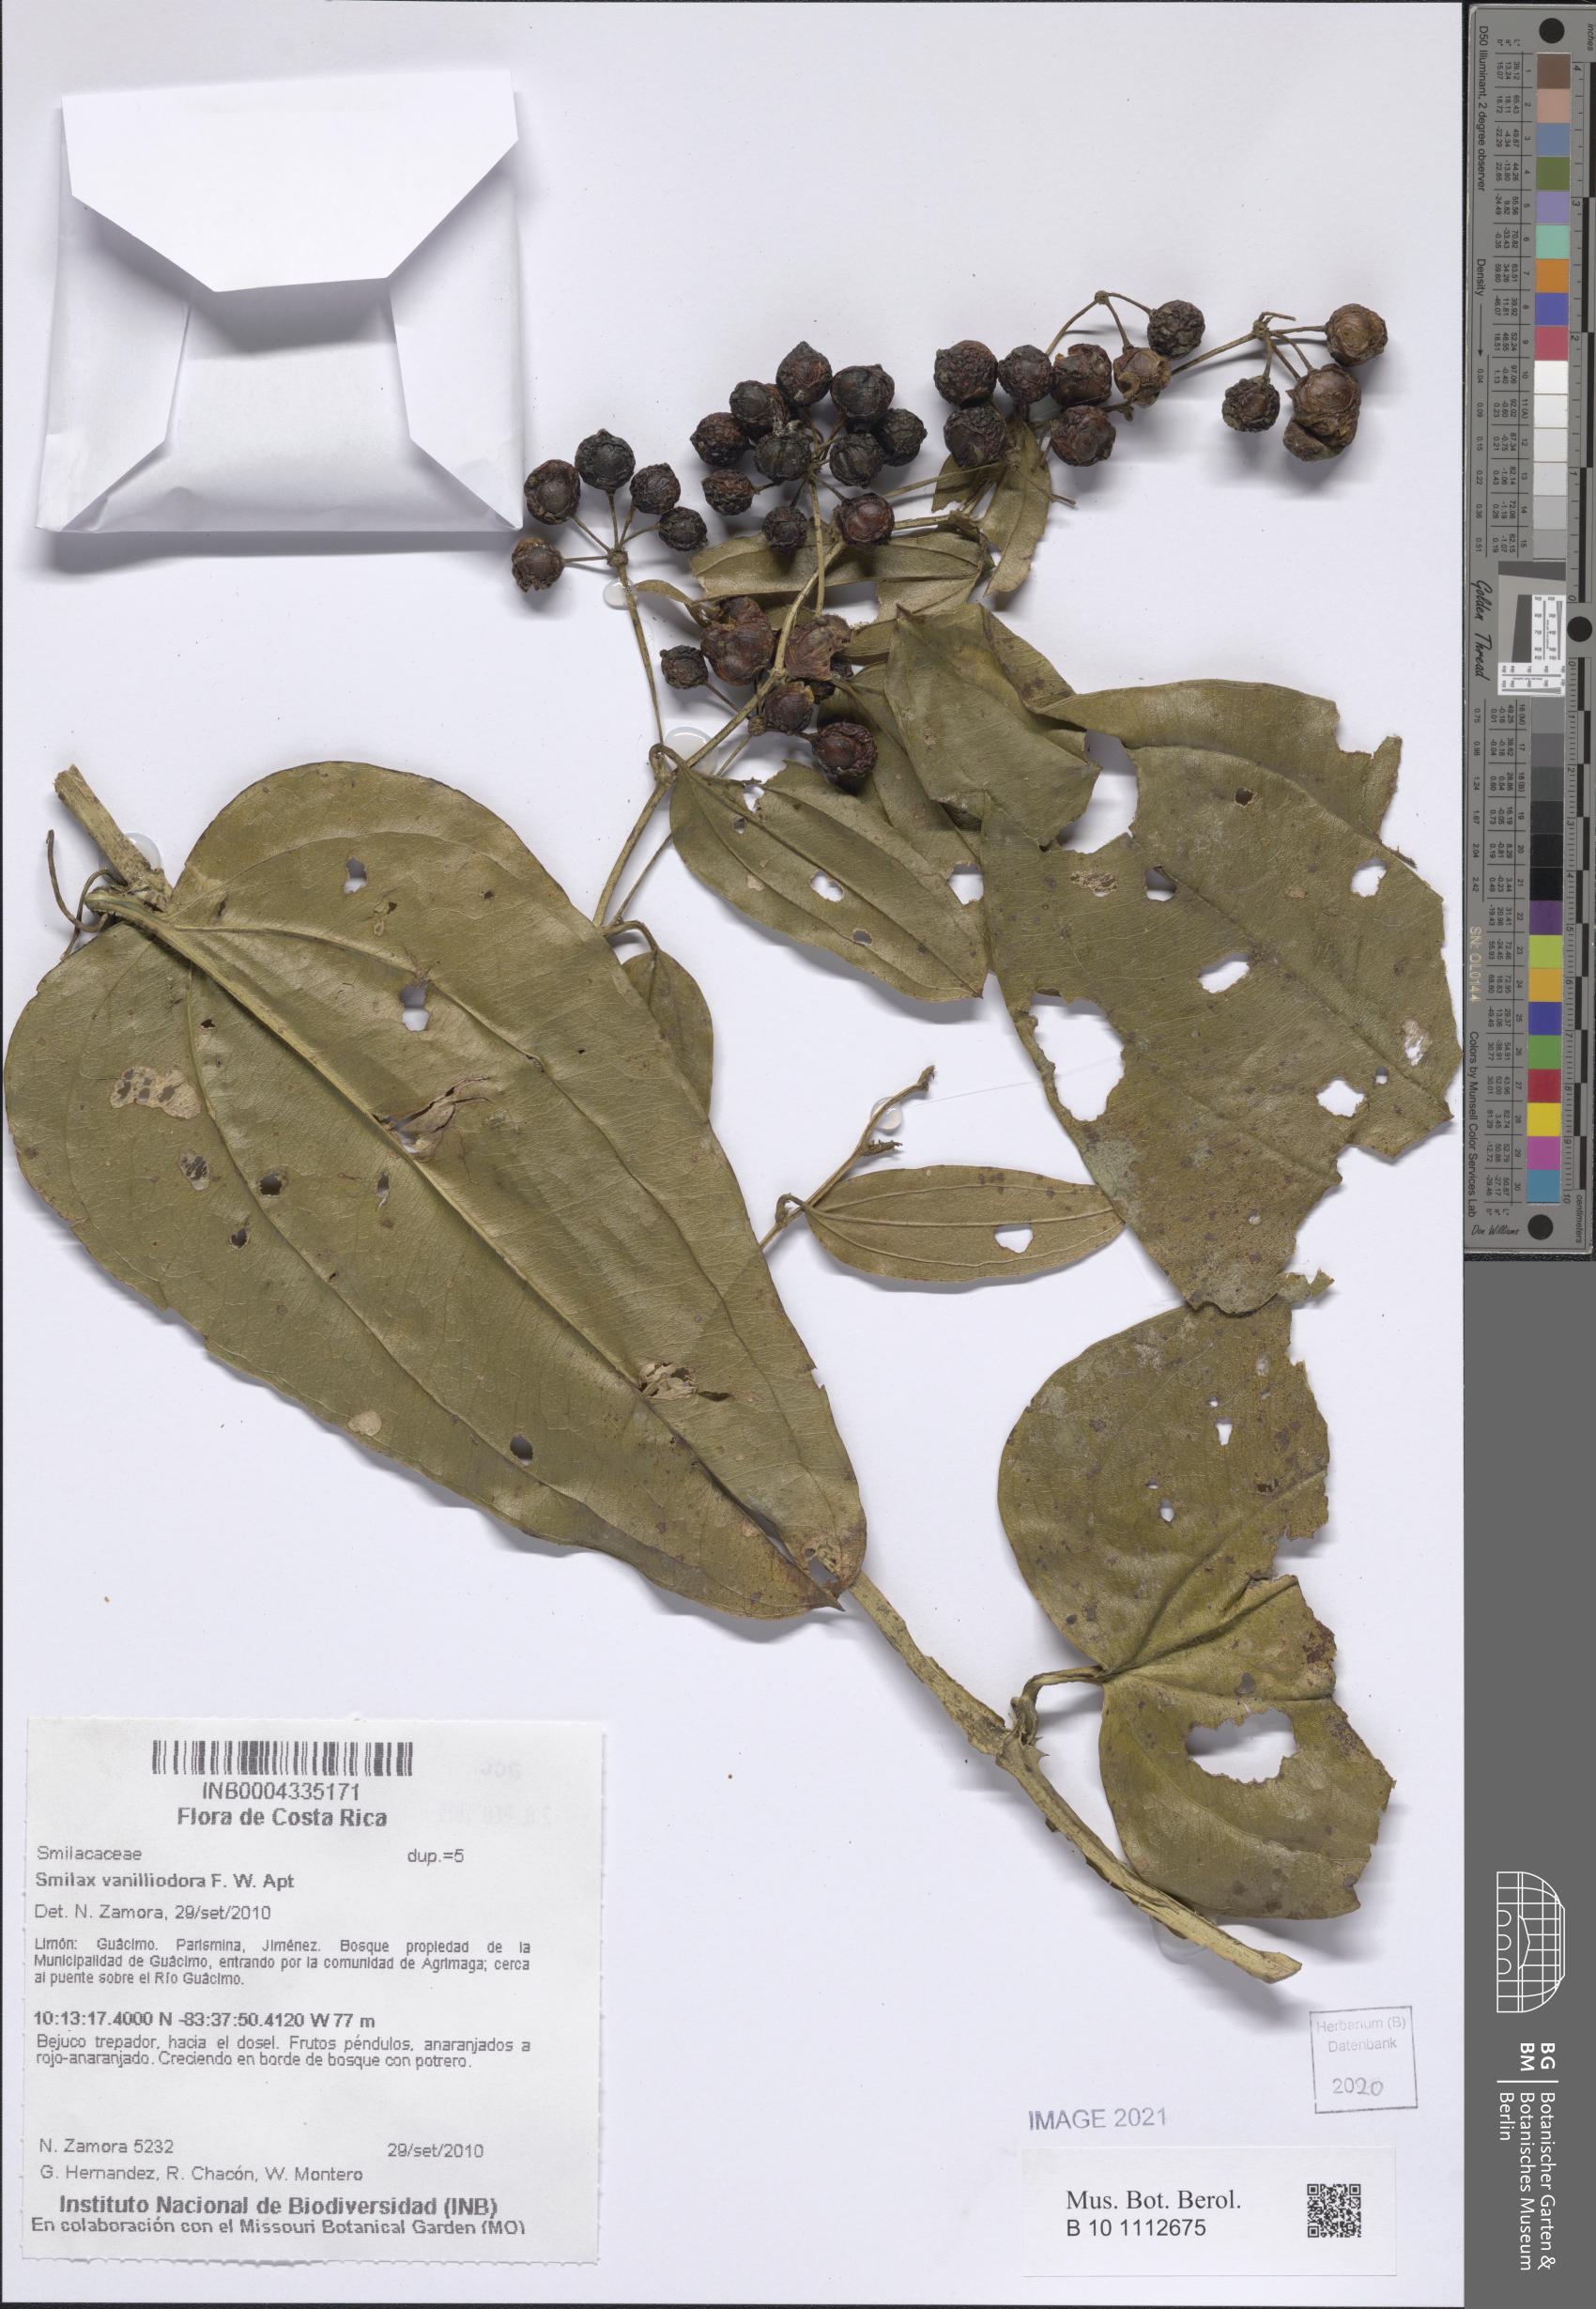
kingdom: Plantae
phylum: Tracheophyta
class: Liliopsida
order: Liliales
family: Smilacaceae
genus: Smilax
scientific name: Smilax officinalis
